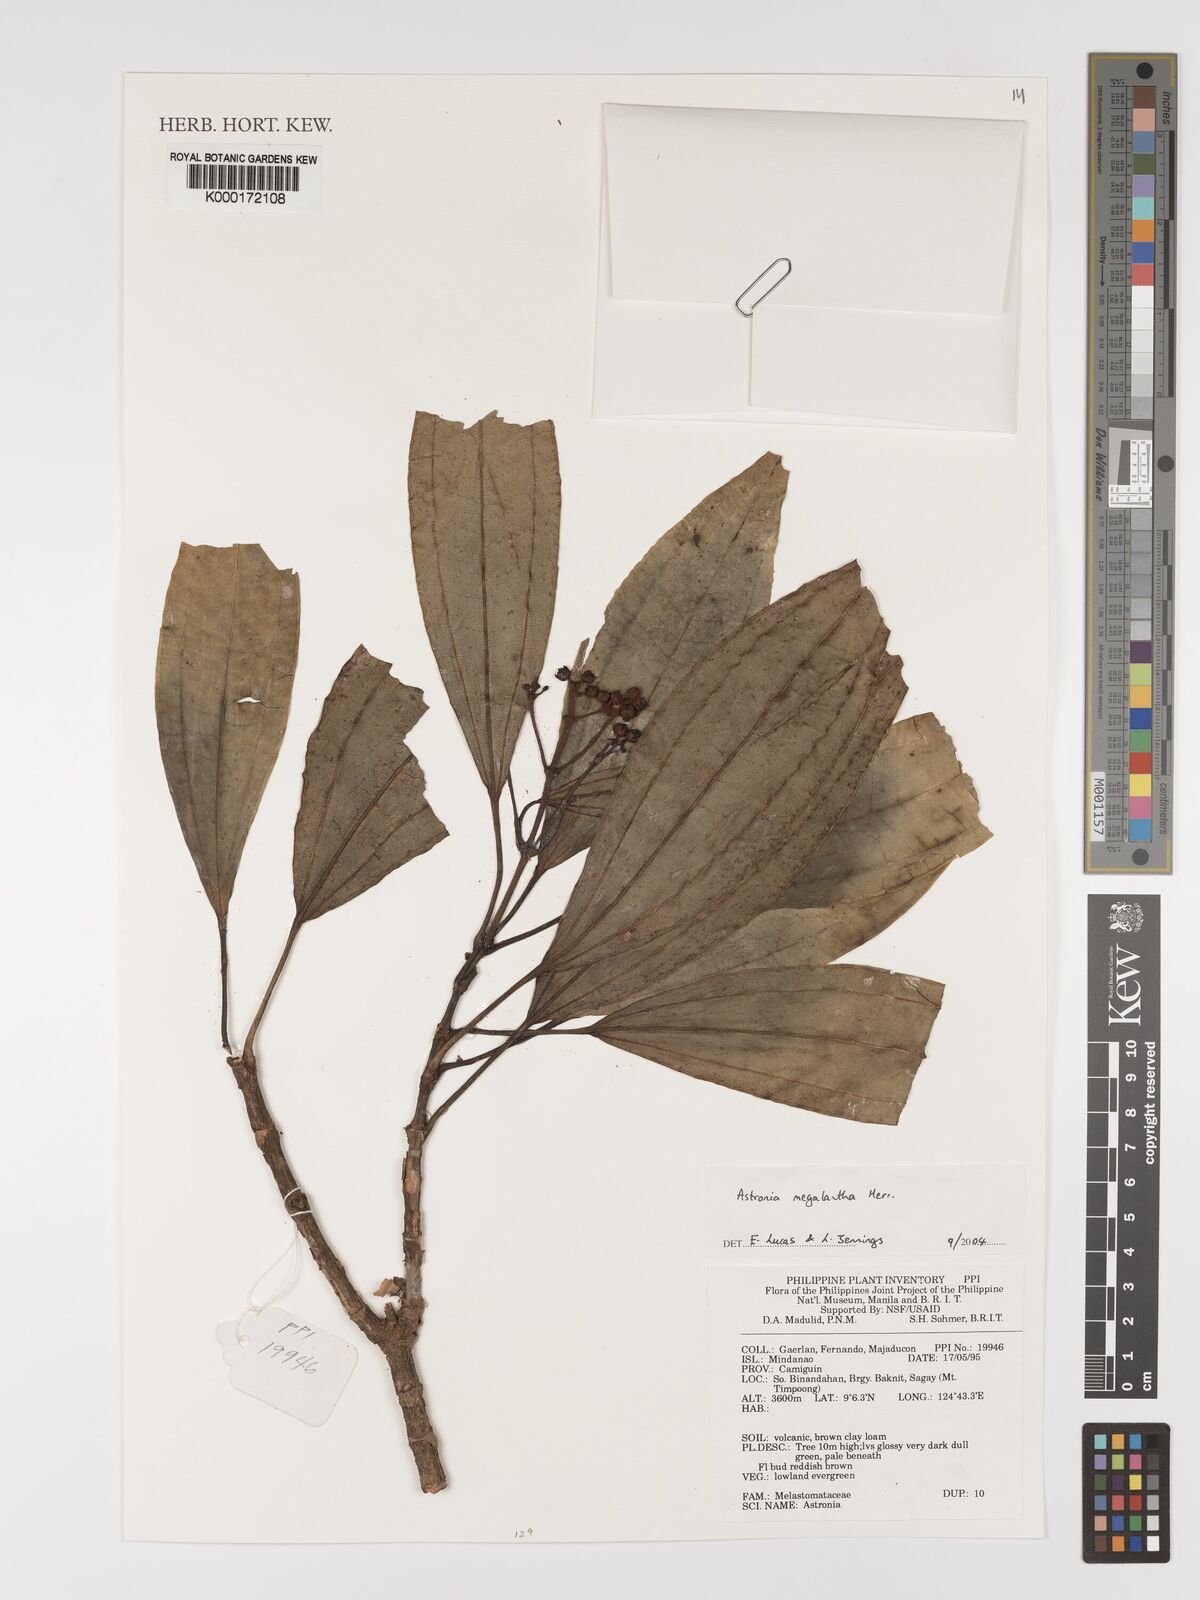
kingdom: Plantae
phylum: Tracheophyta
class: Magnoliopsida
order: Myrtales
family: Melastomataceae
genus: Astronia
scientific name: Astronia megalantha
